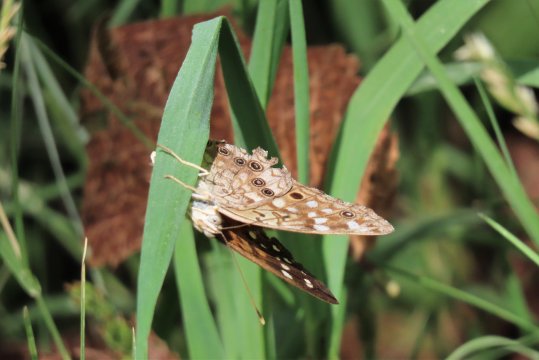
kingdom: Animalia
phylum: Arthropoda
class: Insecta
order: Lepidoptera
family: Nymphalidae
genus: Asterocampa
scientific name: Asterocampa celtis
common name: Hackberry Emperor
